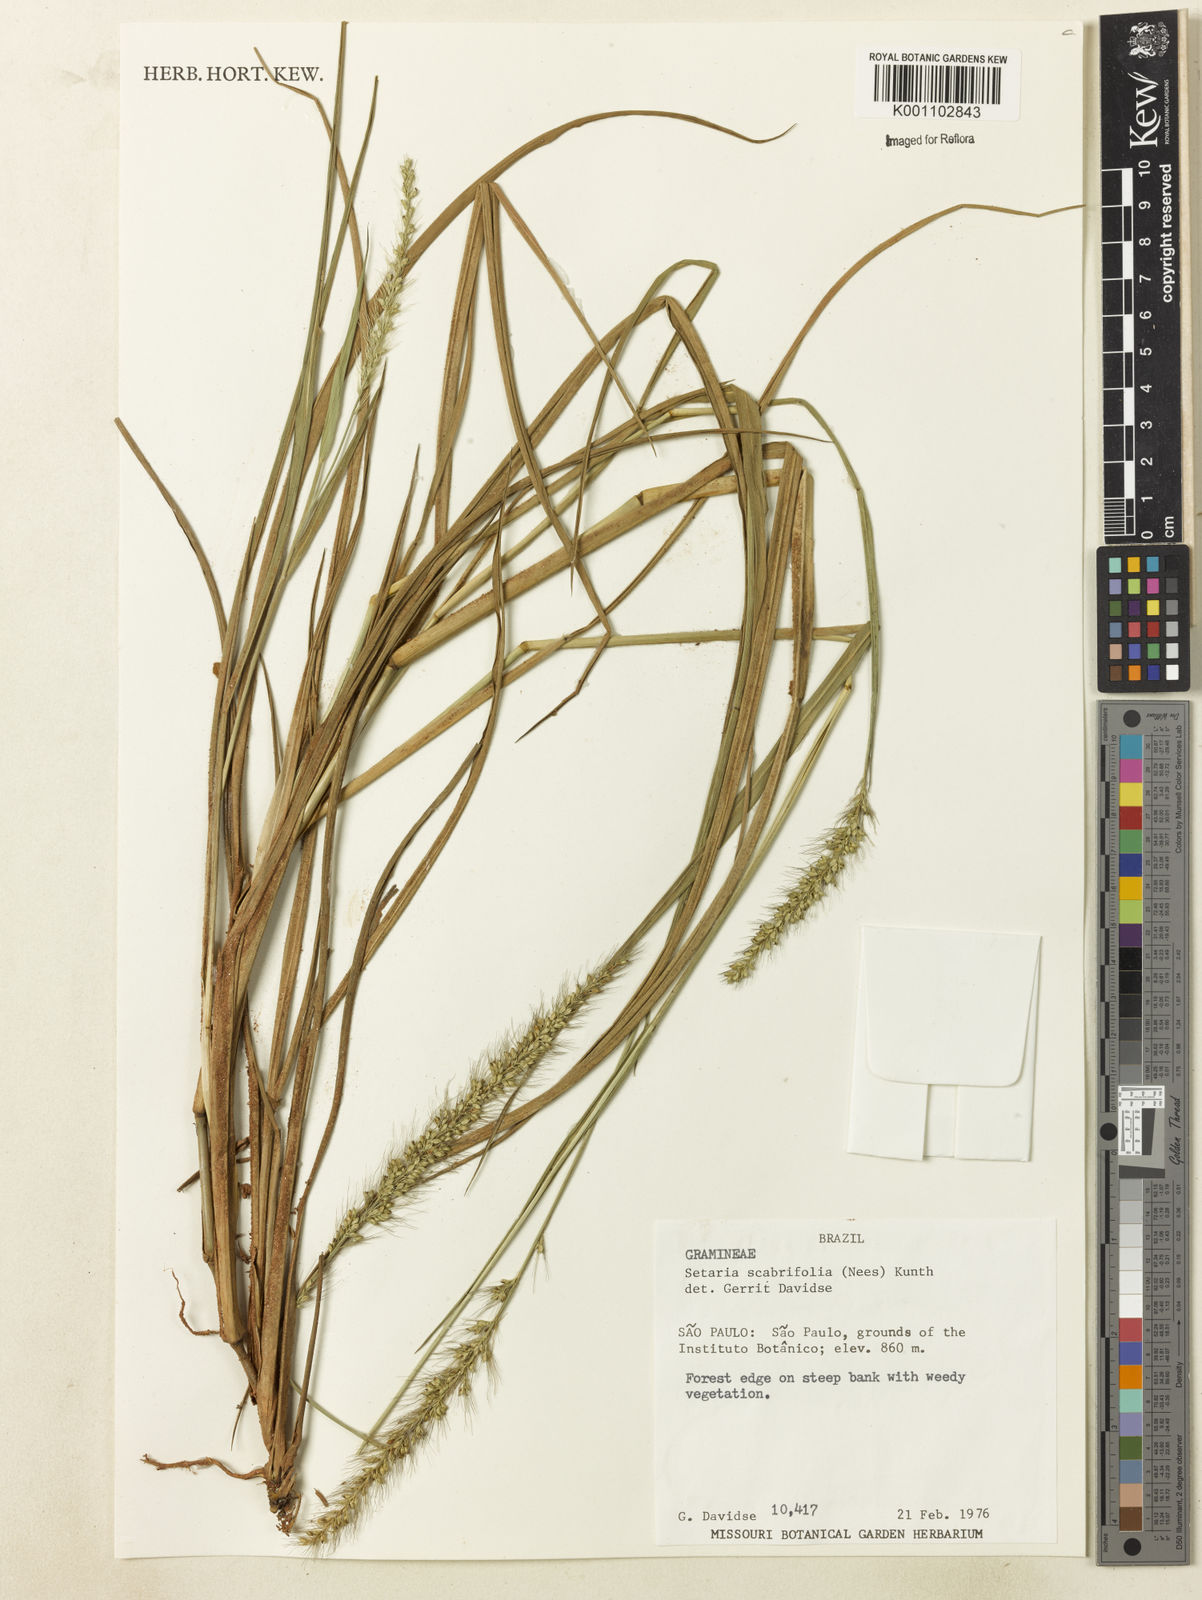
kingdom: Plantae
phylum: Tracheophyta
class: Liliopsida
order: Poales
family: Poaceae
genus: Setaria
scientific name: Setaria scabrifolia
